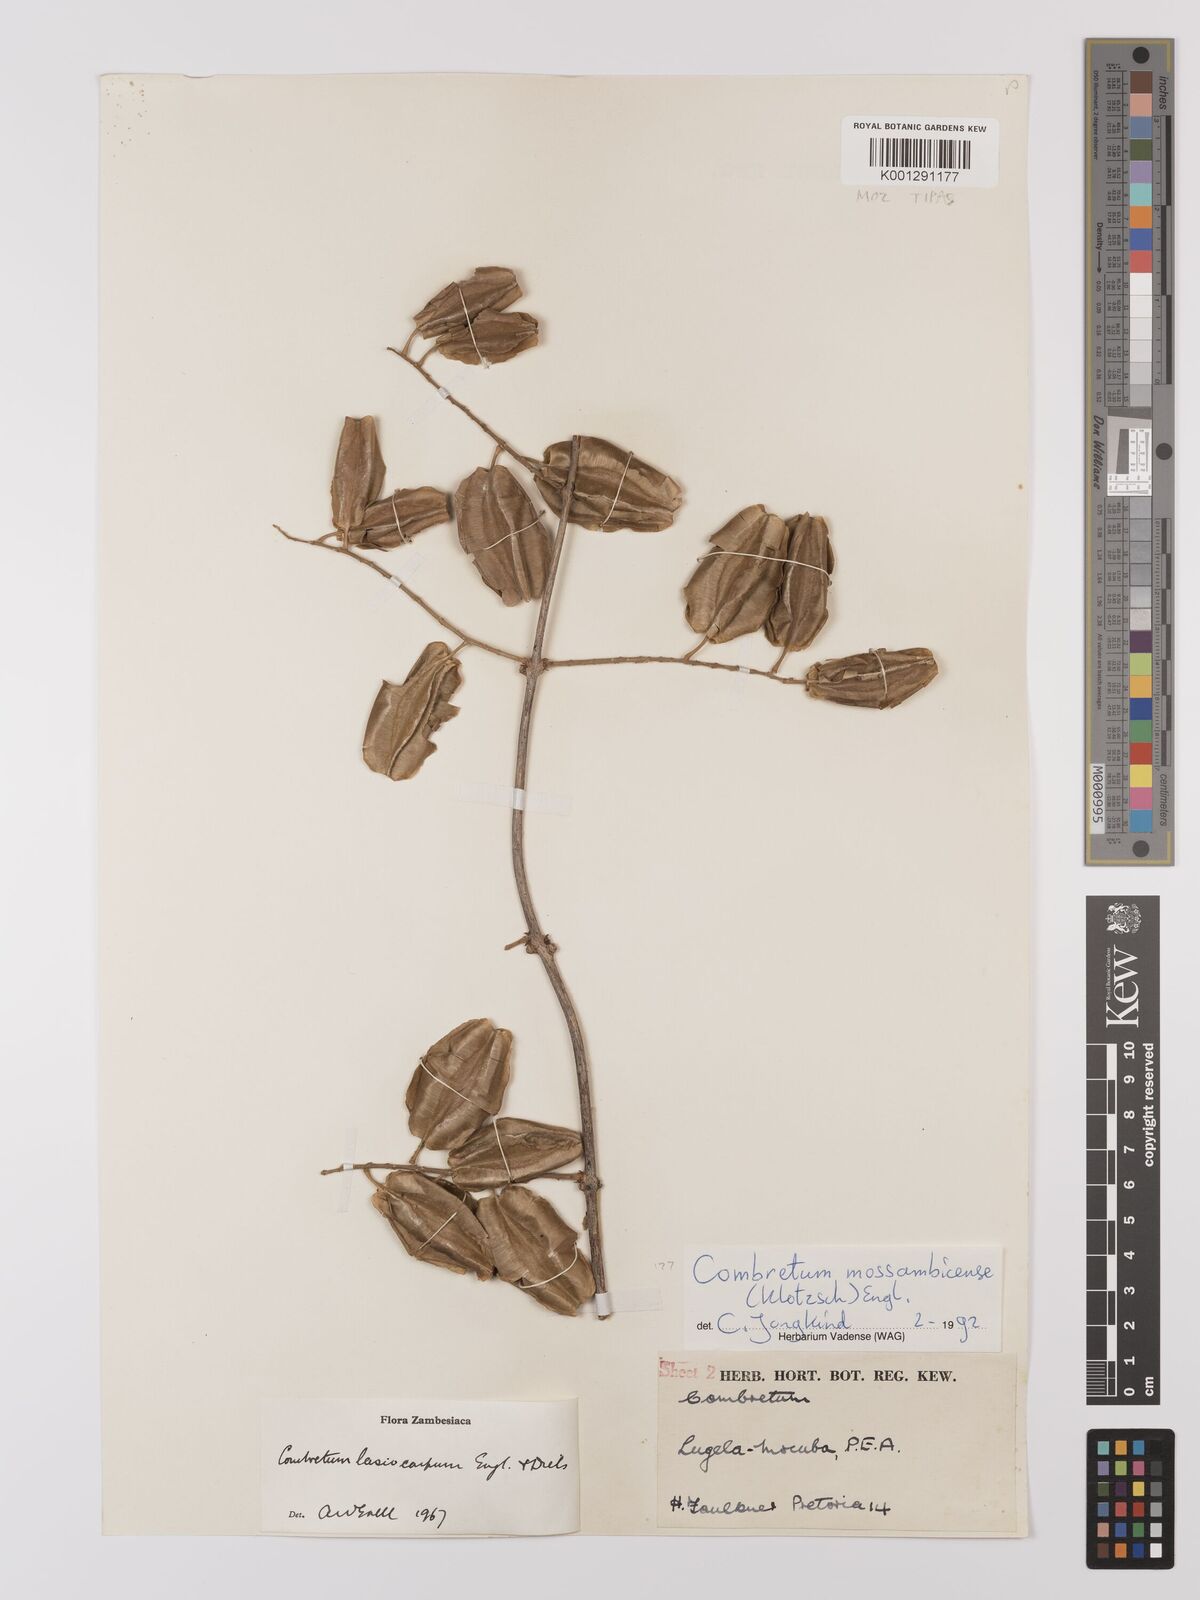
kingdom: Plantae
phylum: Tracheophyta
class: Magnoliopsida
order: Myrtales
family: Combretaceae
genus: Combretum
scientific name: Combretum mossambicense
